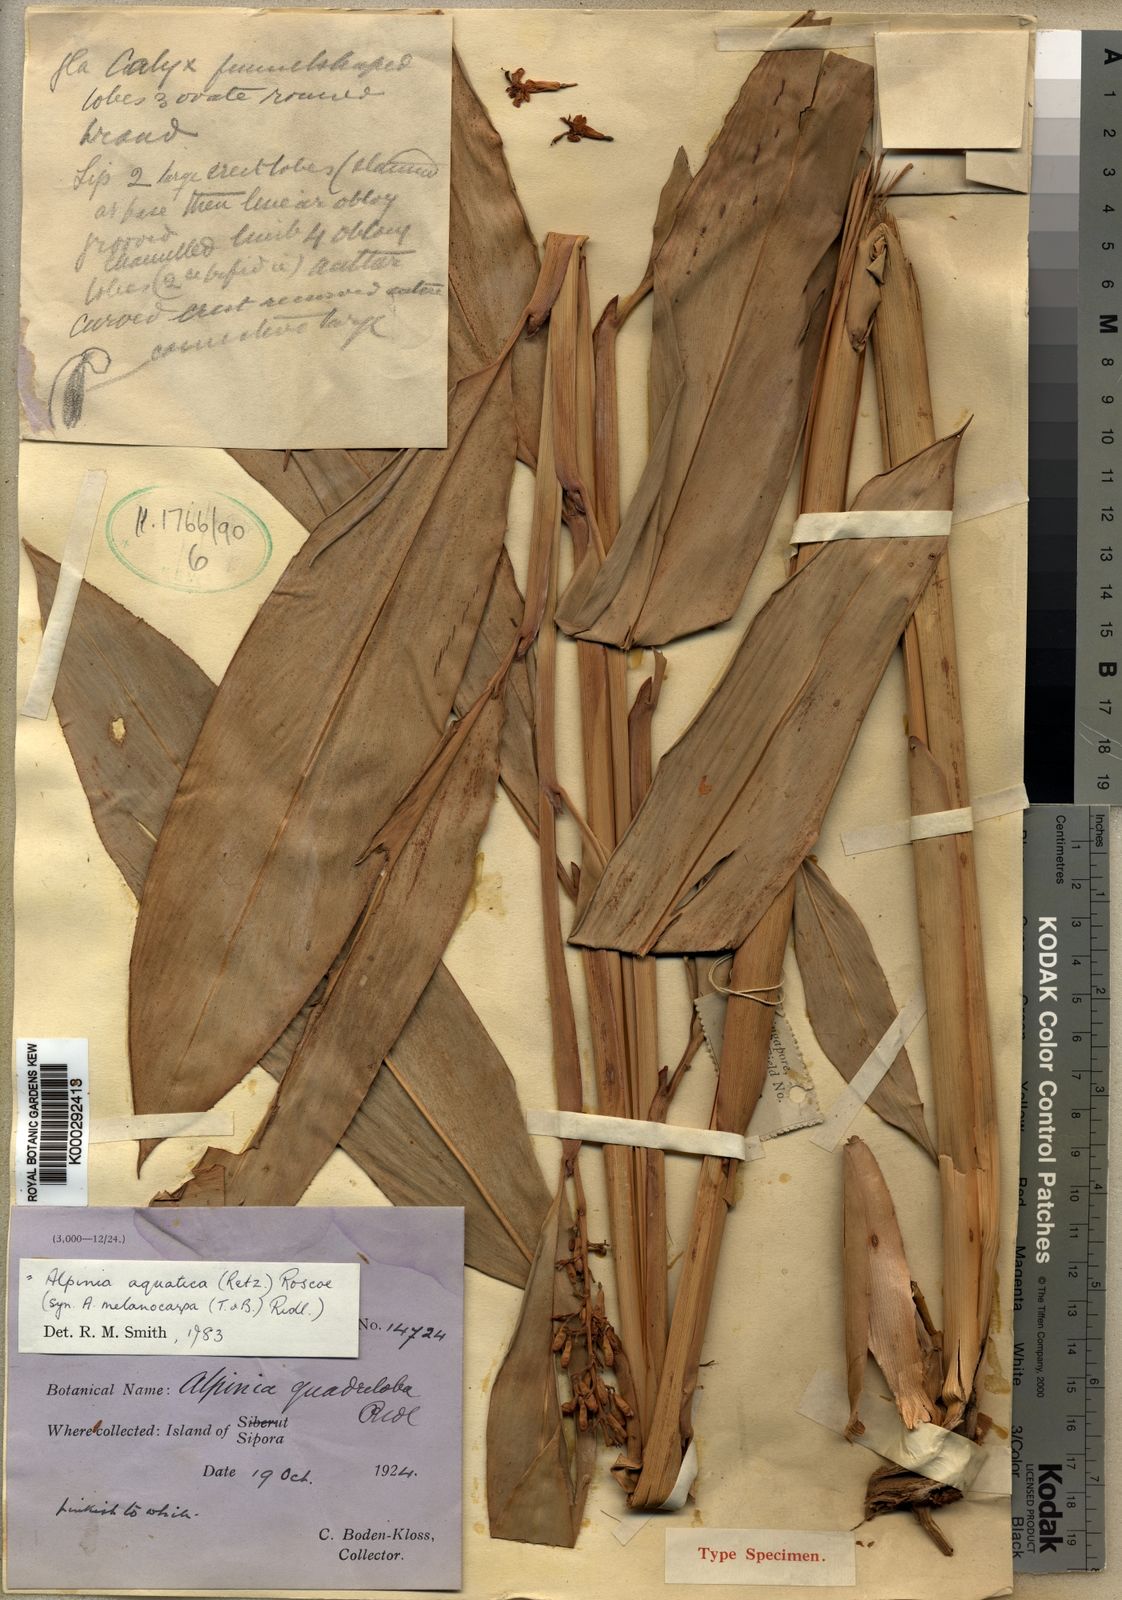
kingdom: Plantae
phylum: Tracheophyta
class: Liliopsida
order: Zingiberales
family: Zingiberaceae
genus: Alpinia
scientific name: Alpinia aquatica
